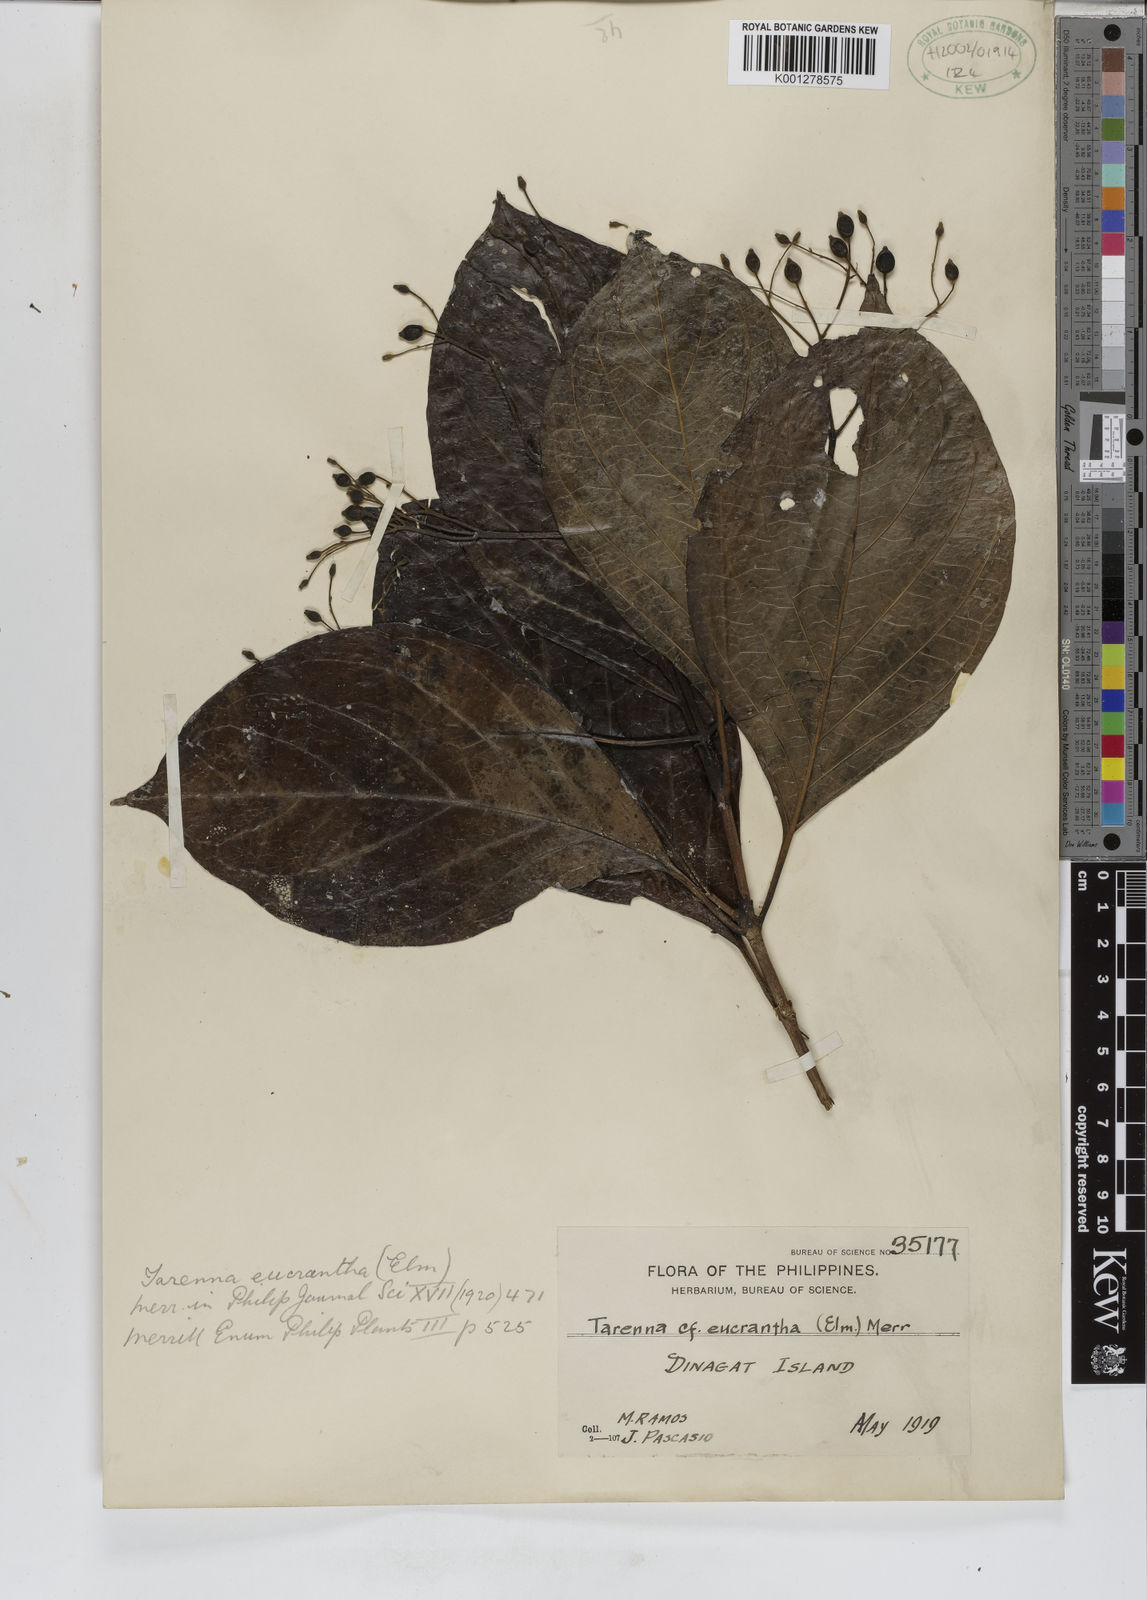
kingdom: Plantae
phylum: Tracheophyta
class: Magnoliopsida
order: Gentianales
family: Rubiaceae
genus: Tarenna
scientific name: Tarenna eucrantha
